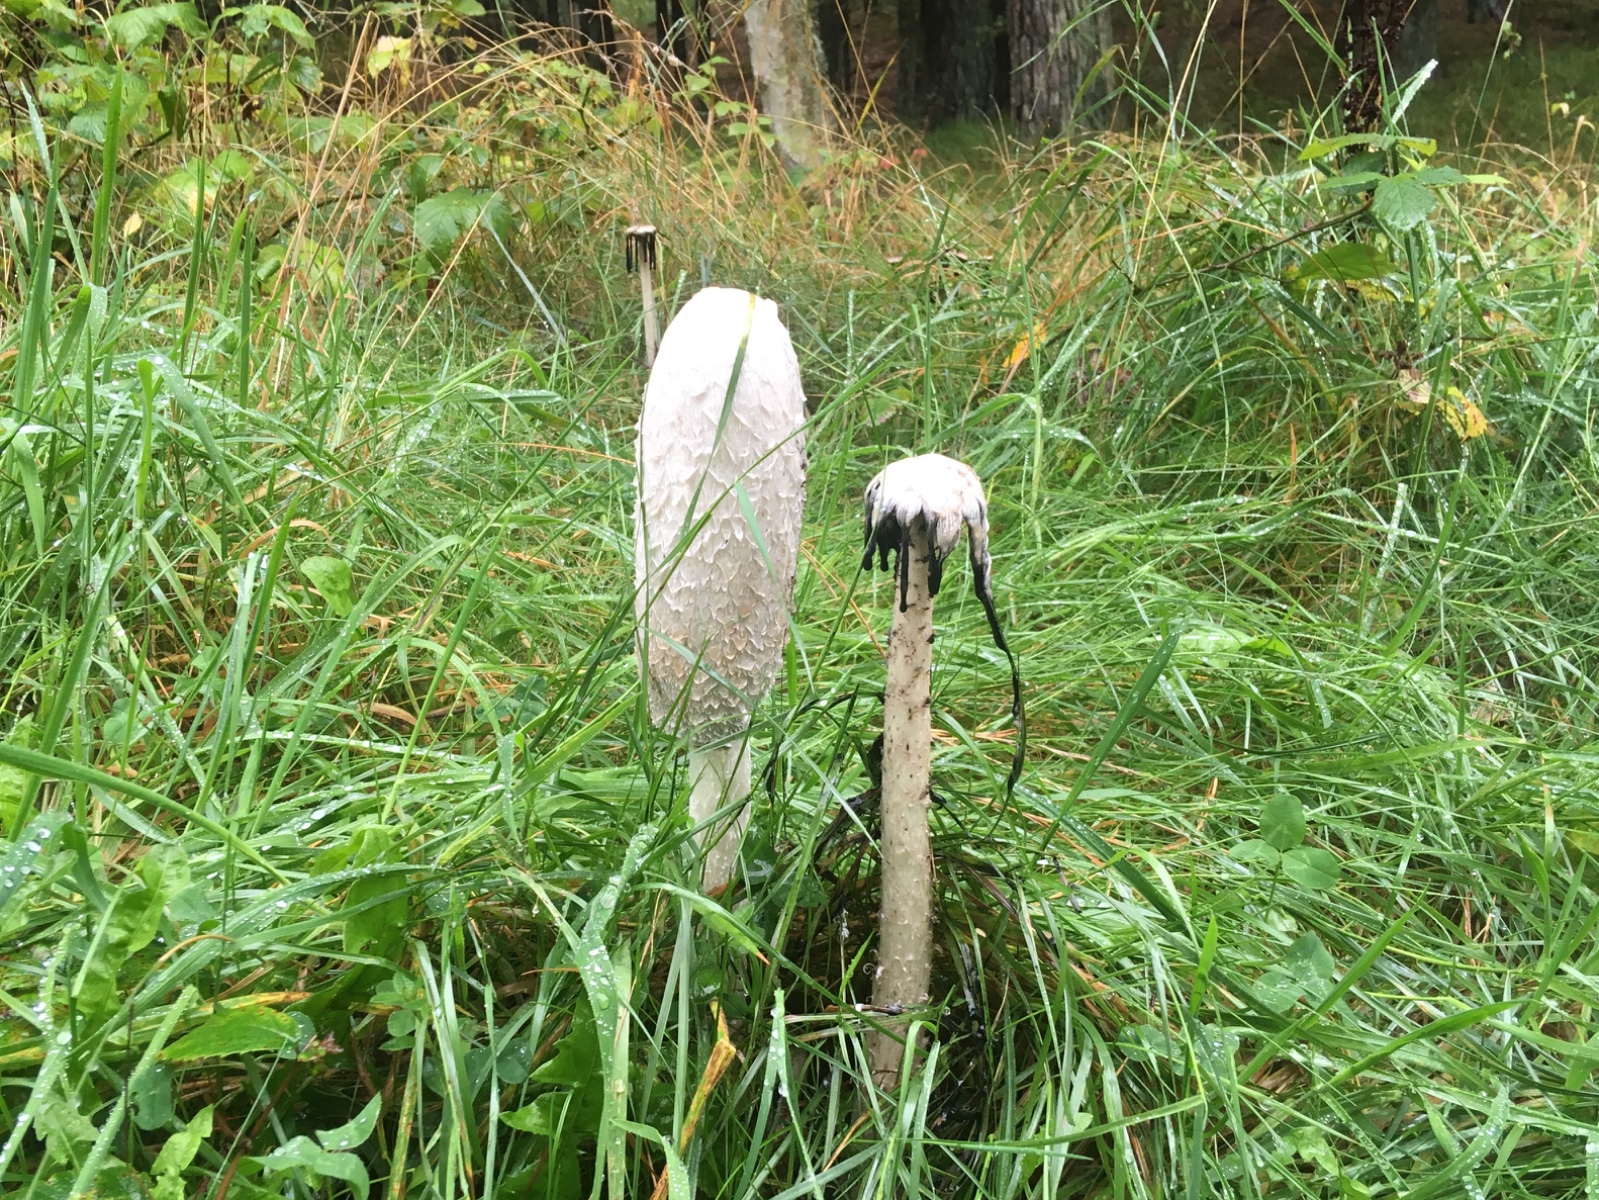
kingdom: Fungi
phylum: Basidiomycota
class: Agaricomycetes
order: Agaricales
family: Agaricaceae
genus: Coprinus
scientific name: Coprinus comatus
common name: stor parykhat
